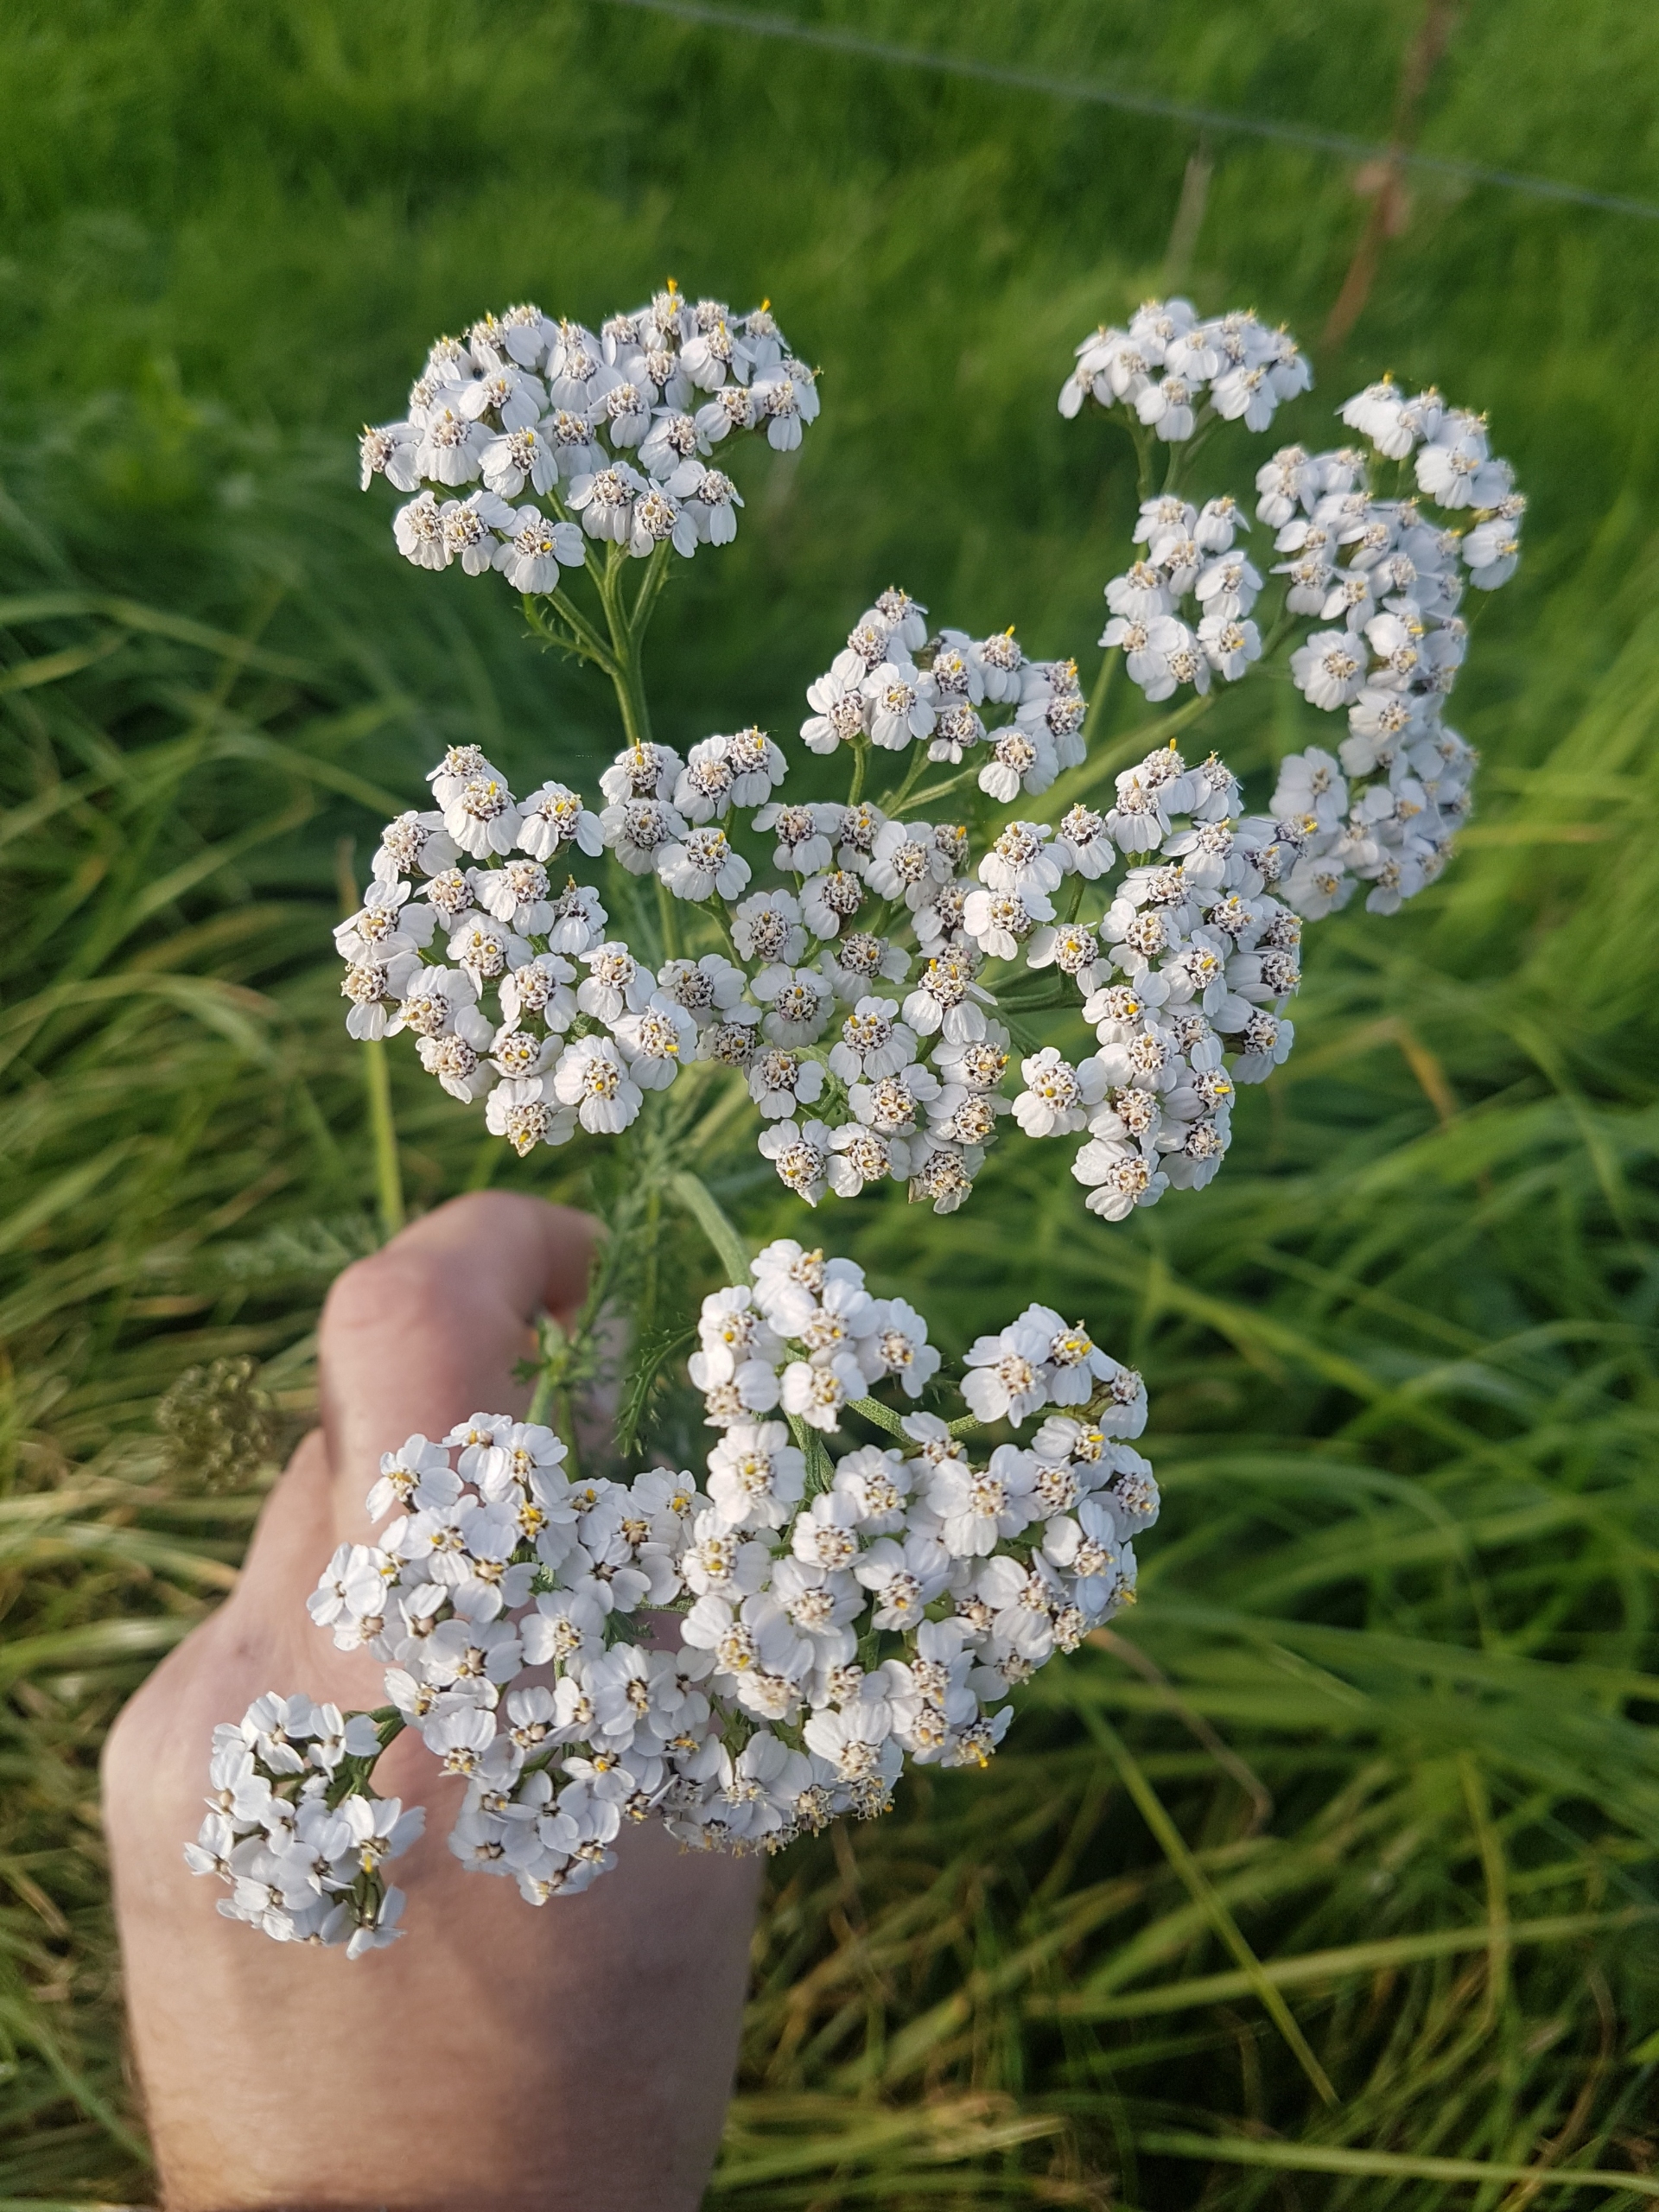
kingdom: Plantae
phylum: Tracheophyta
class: Magnoliopsida
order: Asterales
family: Asteraceae
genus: Achillea
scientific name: Achillea millefolium
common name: Almindelig røllike
